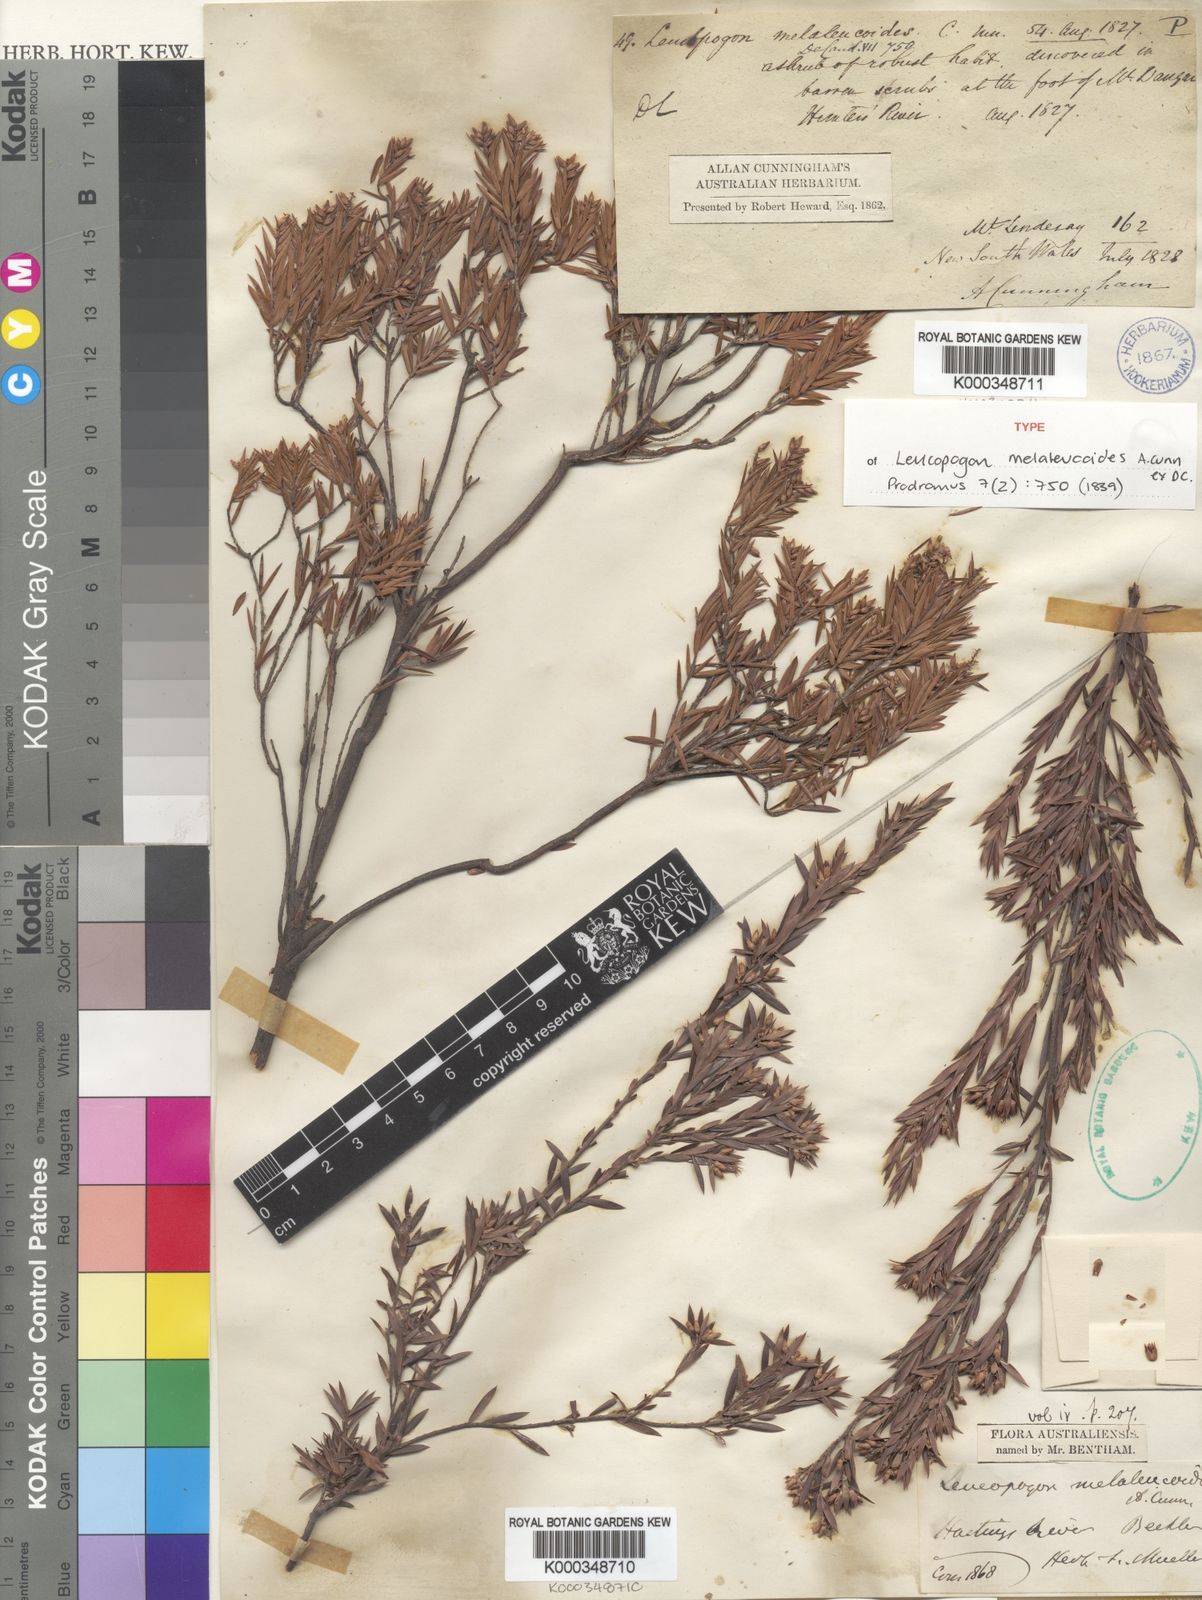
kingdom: Plantae
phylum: Tracheophyta
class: Magnoliopsida
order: Ericales
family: Ericaceae
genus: Acrothamnus
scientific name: Acrothamnus melaleucoides
